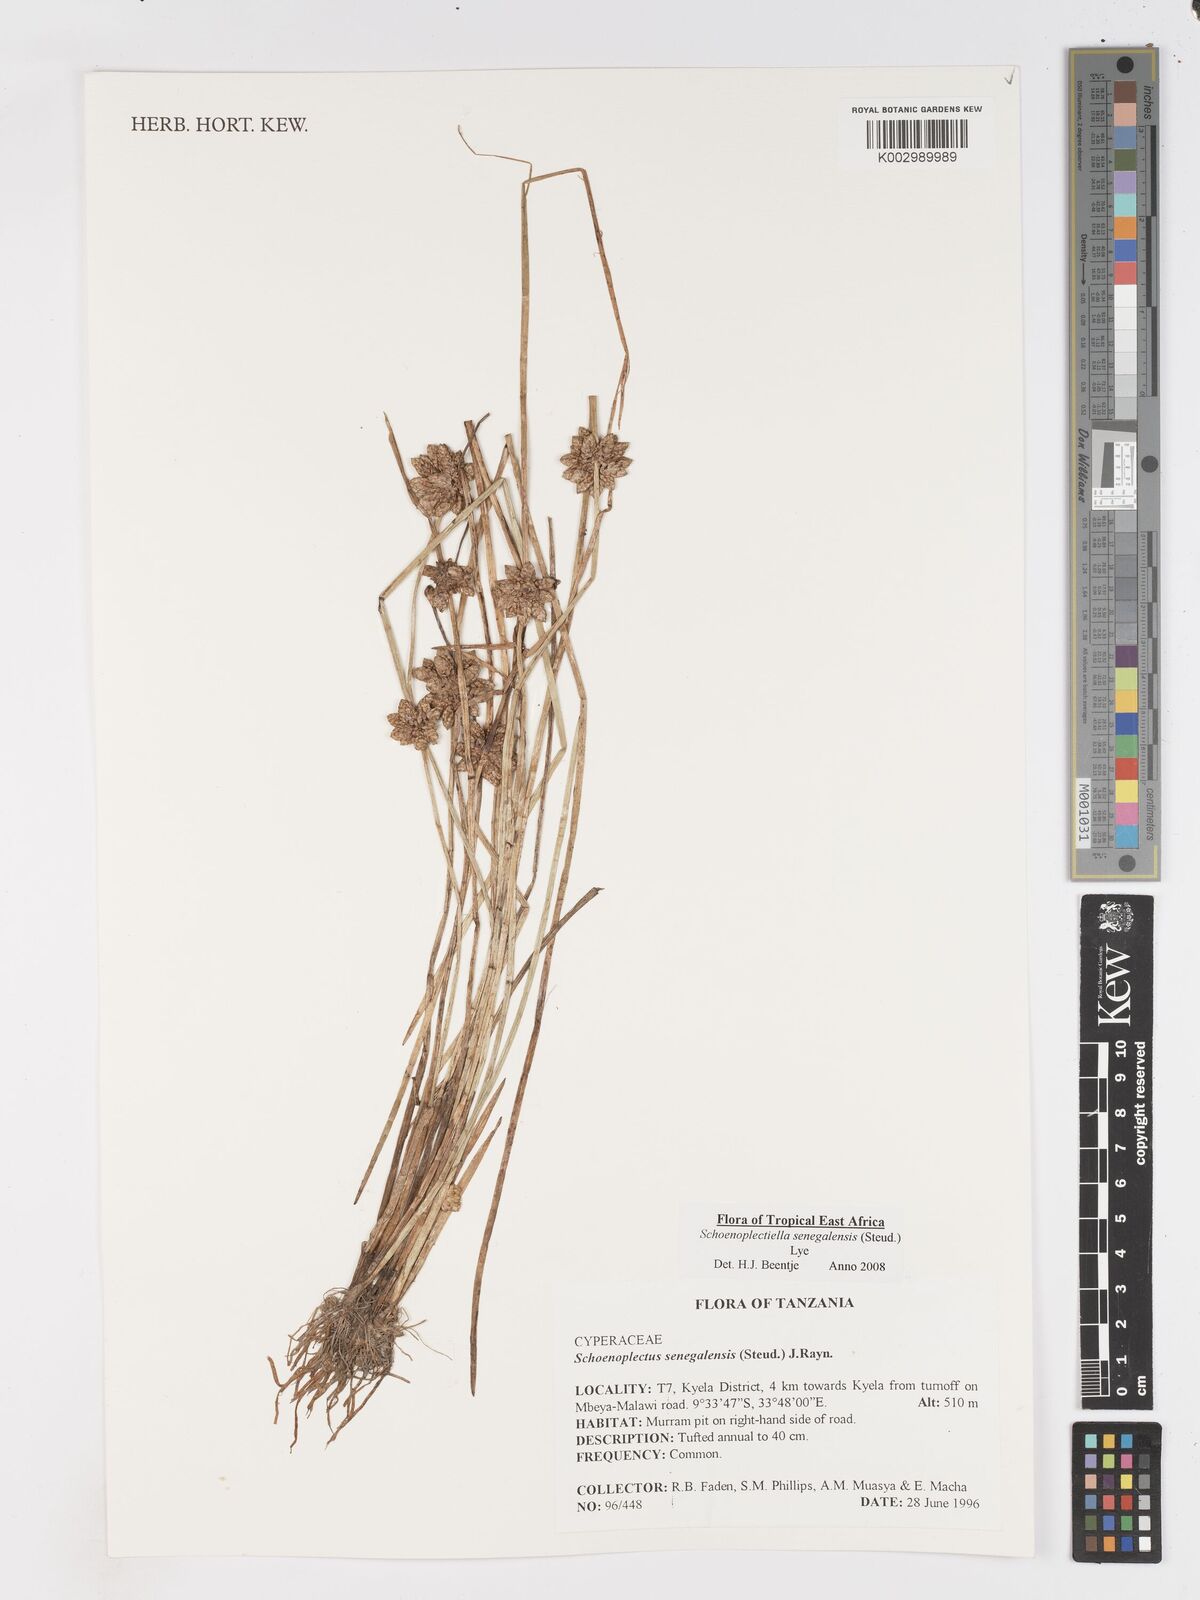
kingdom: Plantae
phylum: Tracheophyta
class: Liliopsida
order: Poales
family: Cyperaceae
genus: Schoenoplectiella
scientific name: Schoenoplectiella senegalensis
